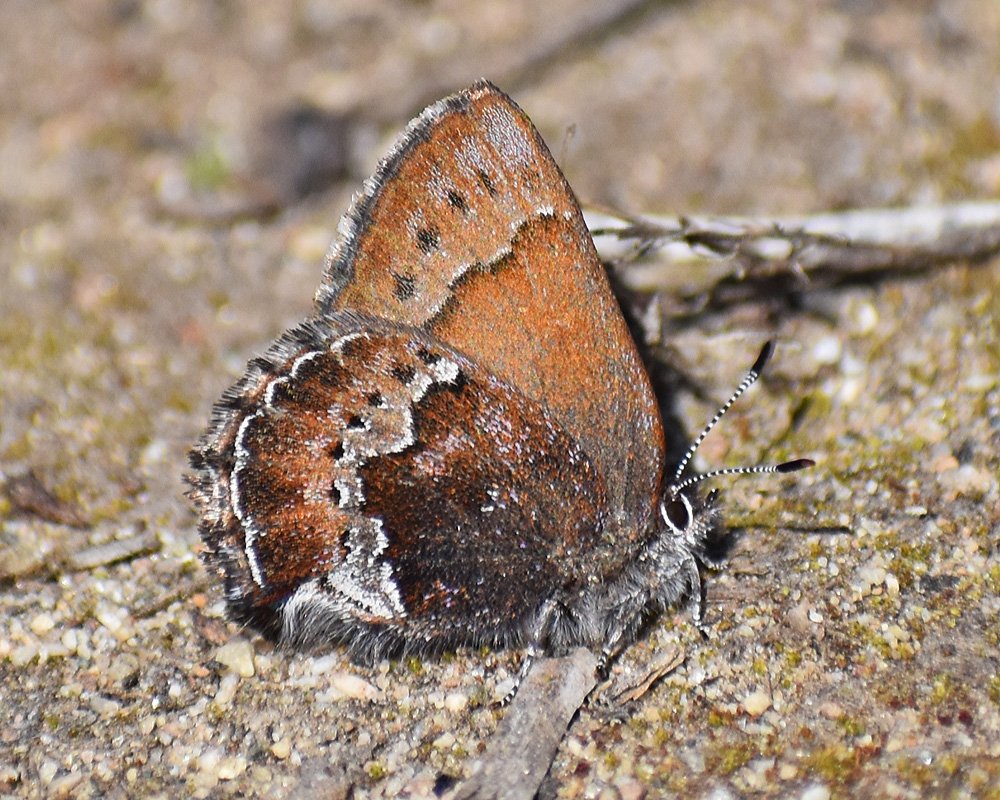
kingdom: Animalia
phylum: Arthropoda
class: Insecta
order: Lepidoptera
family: Lycaenidae
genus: Callophrys
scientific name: Callophrys mossii
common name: Moss' Elfin
